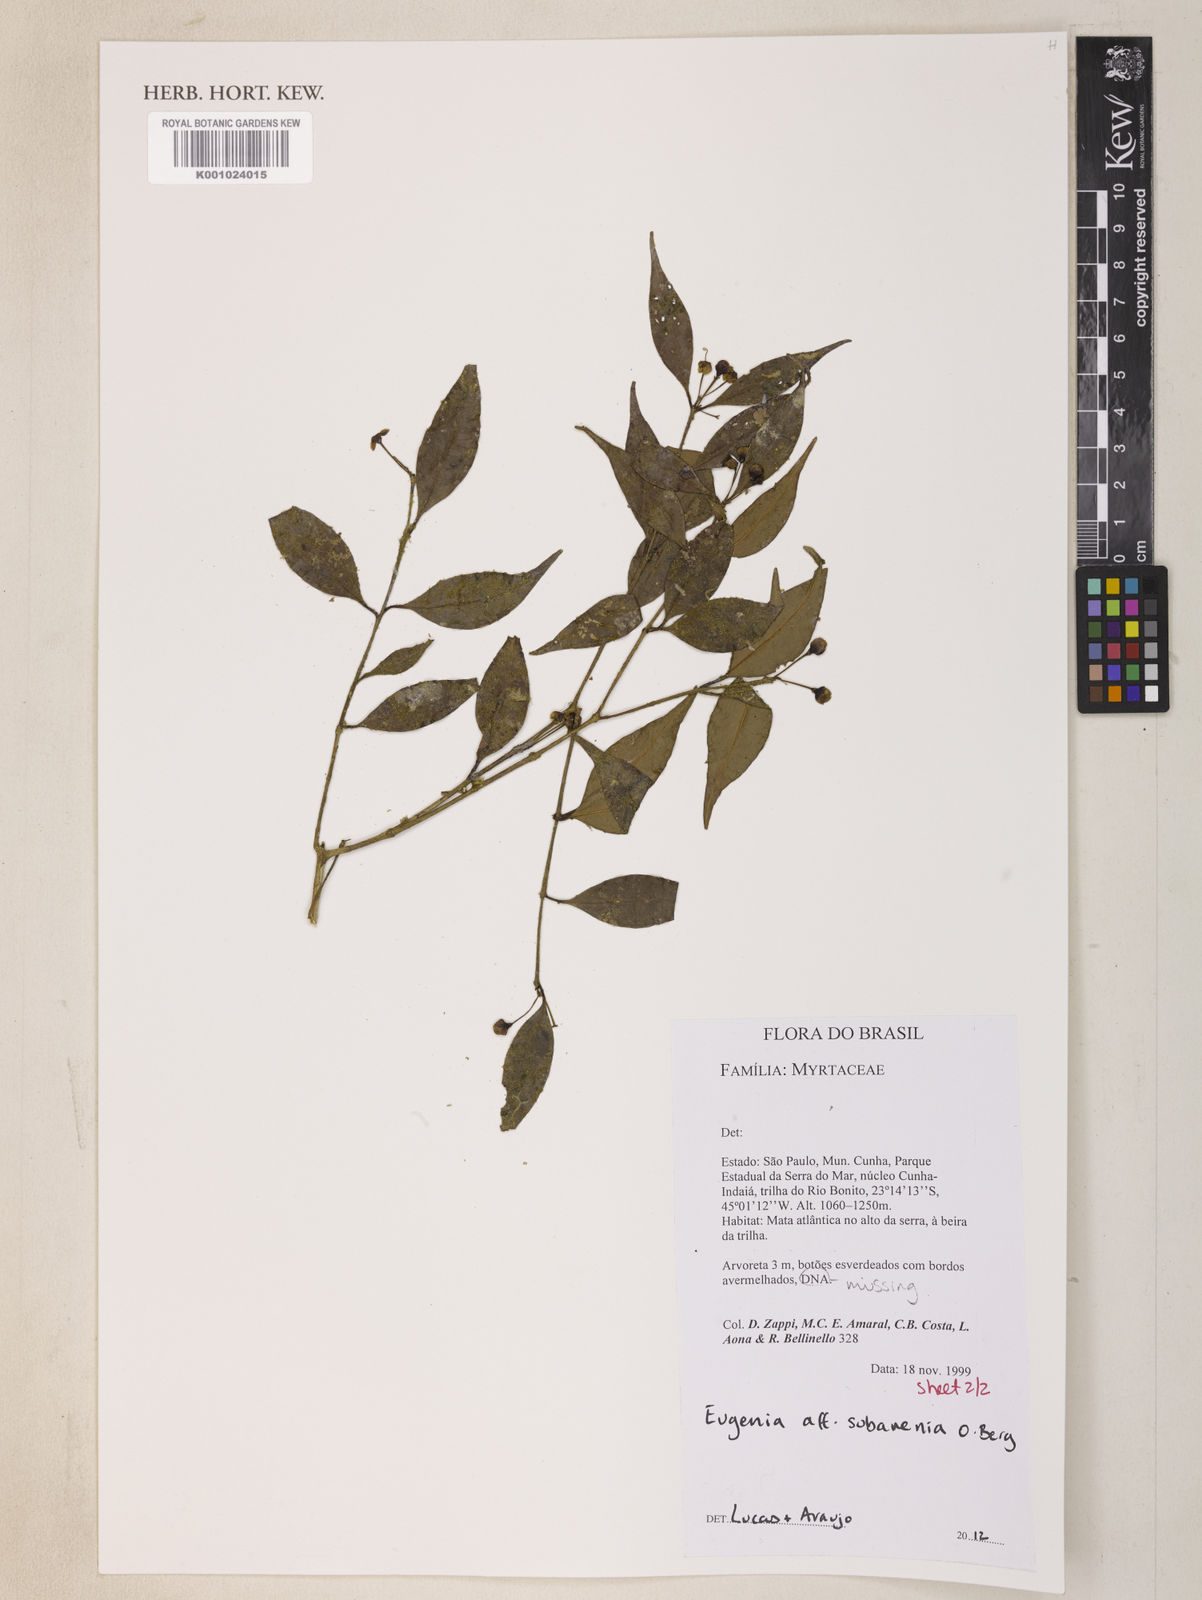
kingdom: Plantae
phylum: Tracheophyta
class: Magnoliopsida
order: Myrtales
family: Myrtaceae
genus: Eugenia
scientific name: Eugenia subavenia
